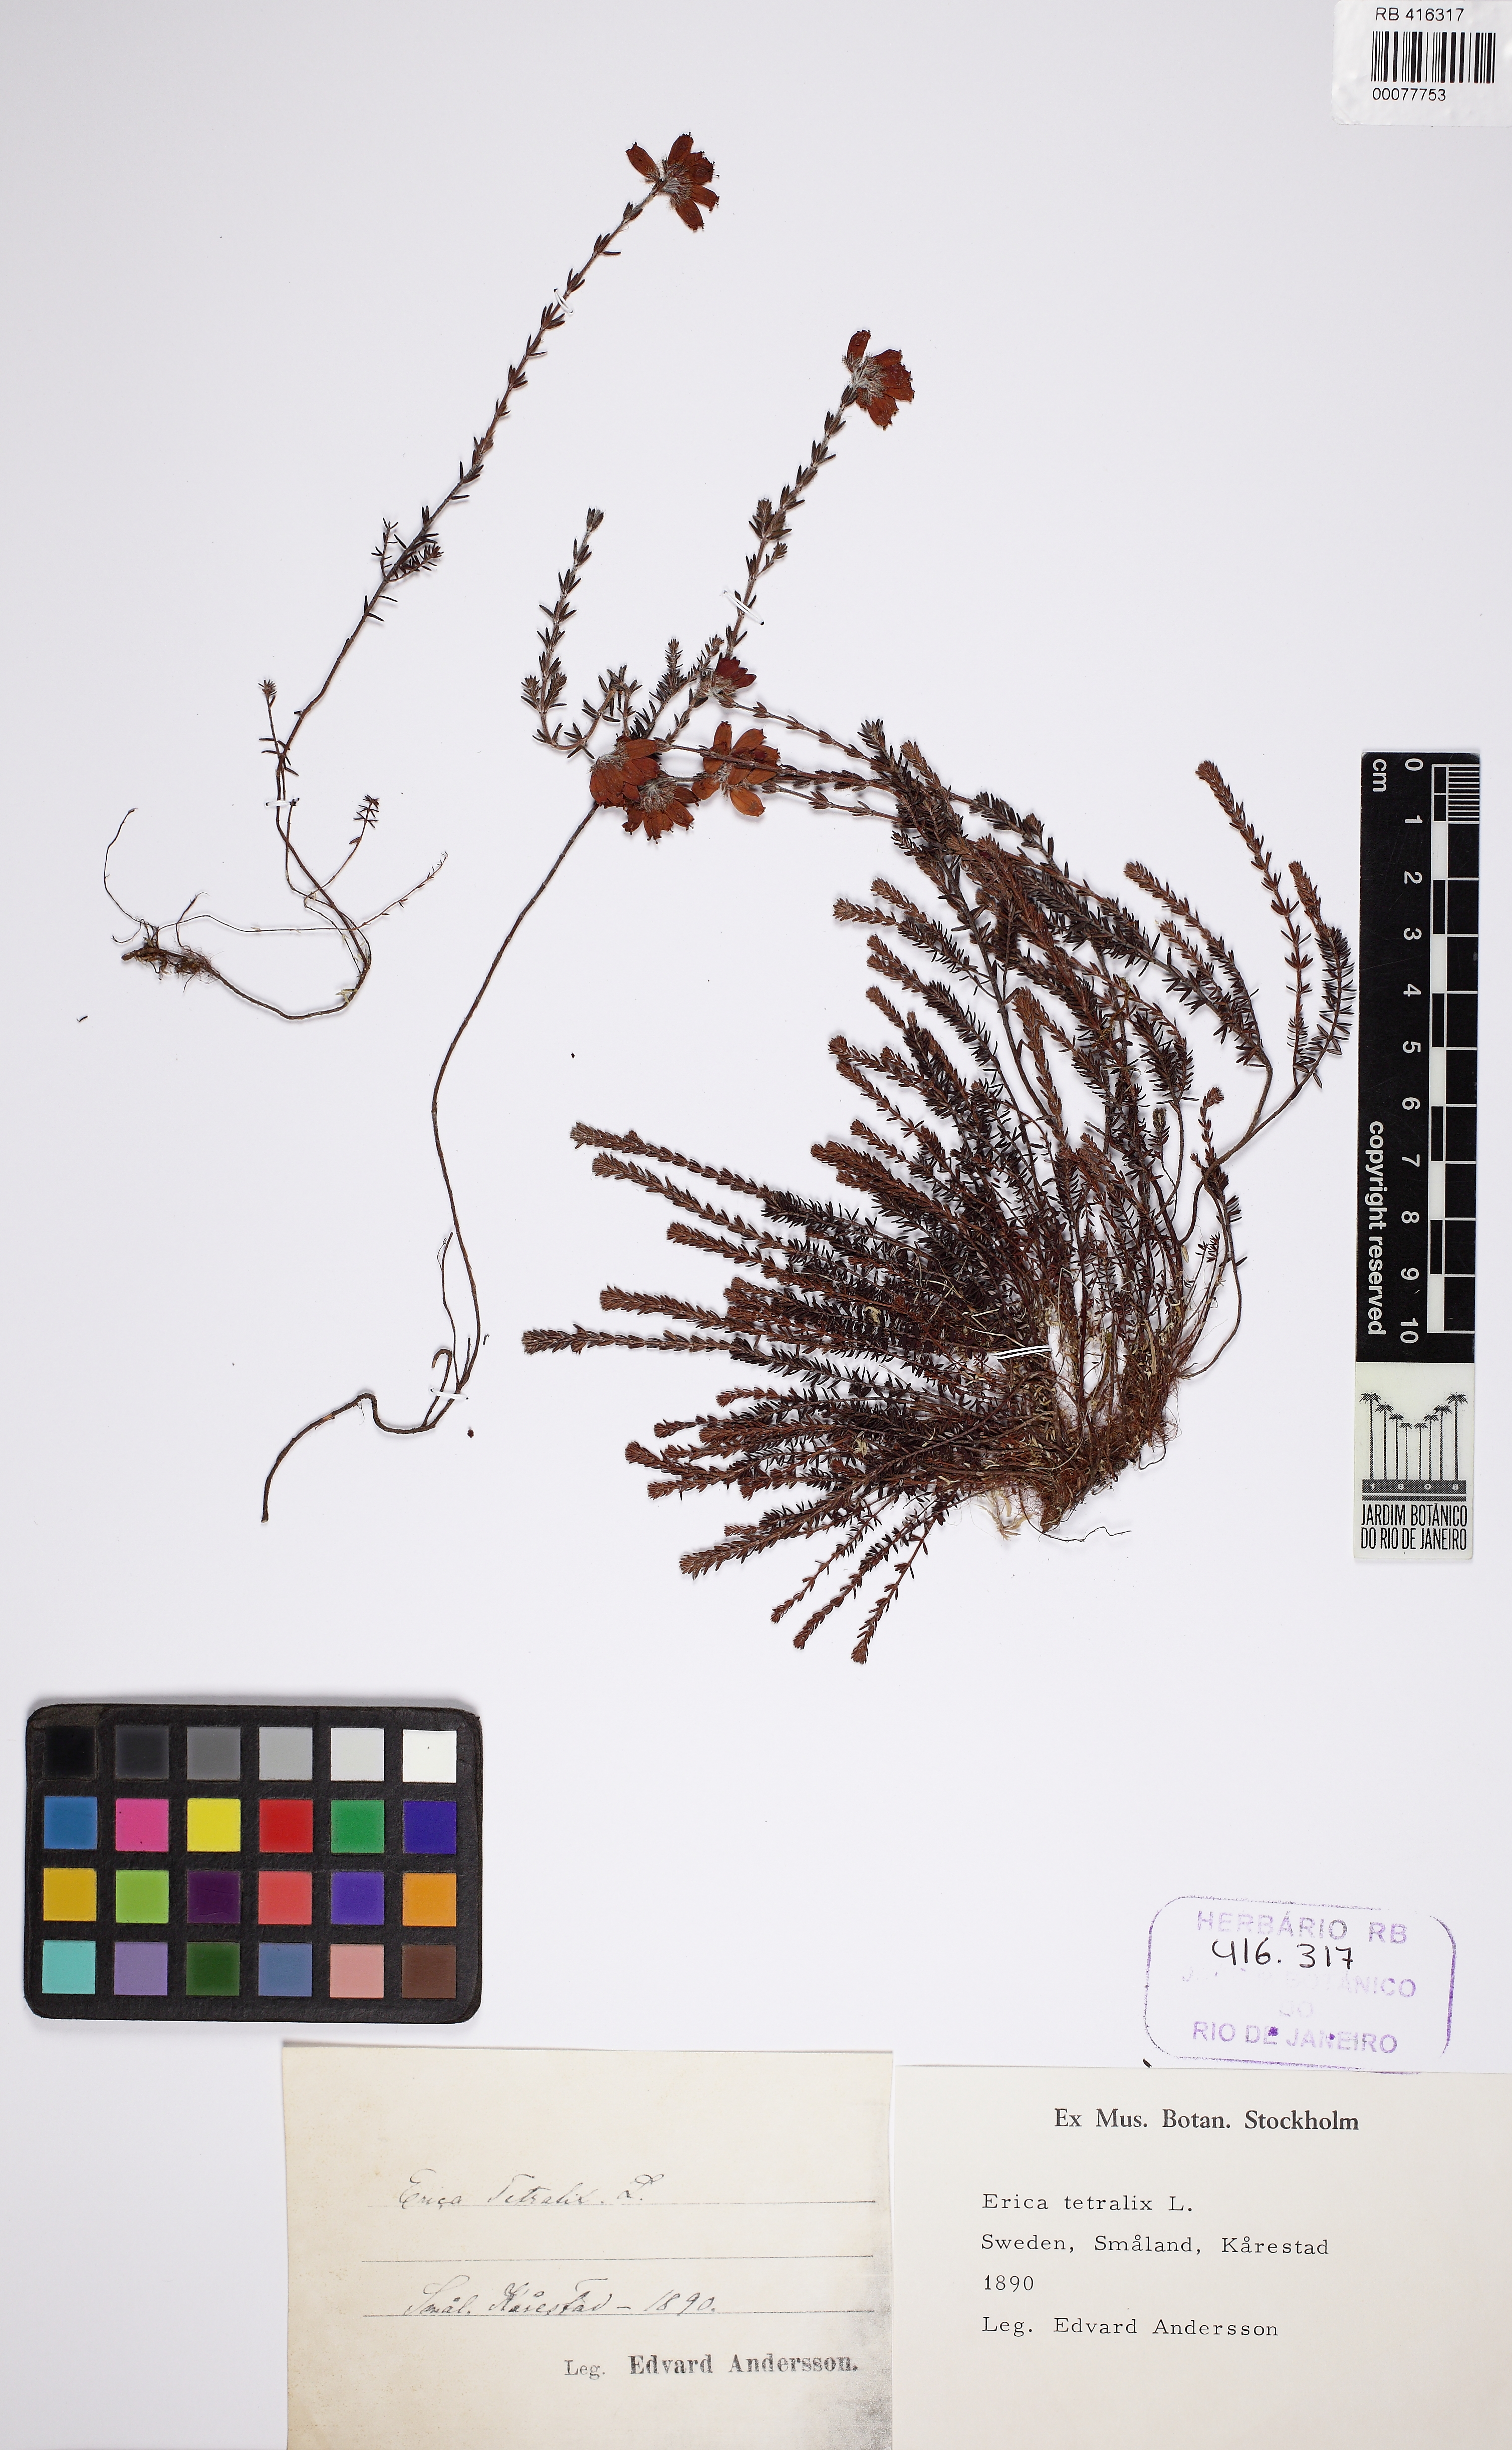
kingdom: Plantae
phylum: Tracheophyta
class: Magnoliopsida
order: Ericales
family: Ericaceae
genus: Erica
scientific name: Erica tetralix
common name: Cross-leaved heath
